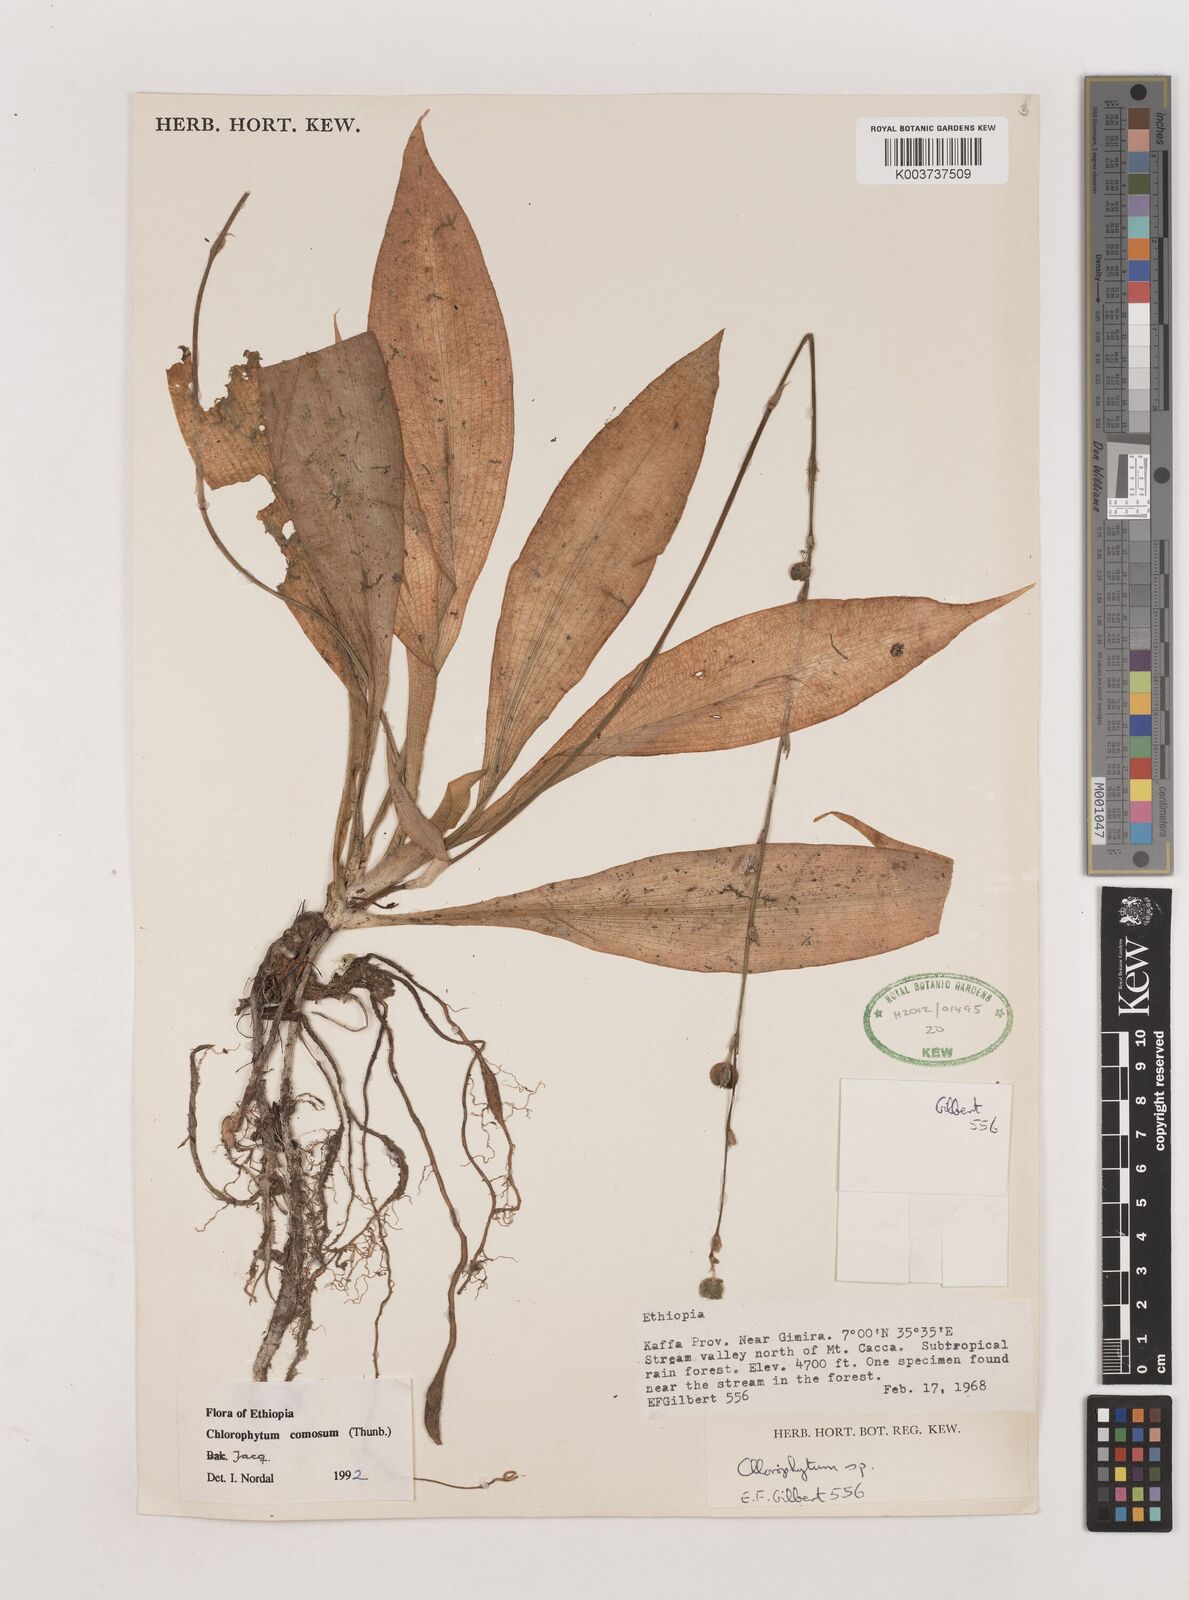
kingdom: Plantae
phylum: Tracheophyta
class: Liliopsida
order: Asparagales
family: Asparagaceae
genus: Chlorophytum
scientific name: Chlorophytum comosum
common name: Spider plant
